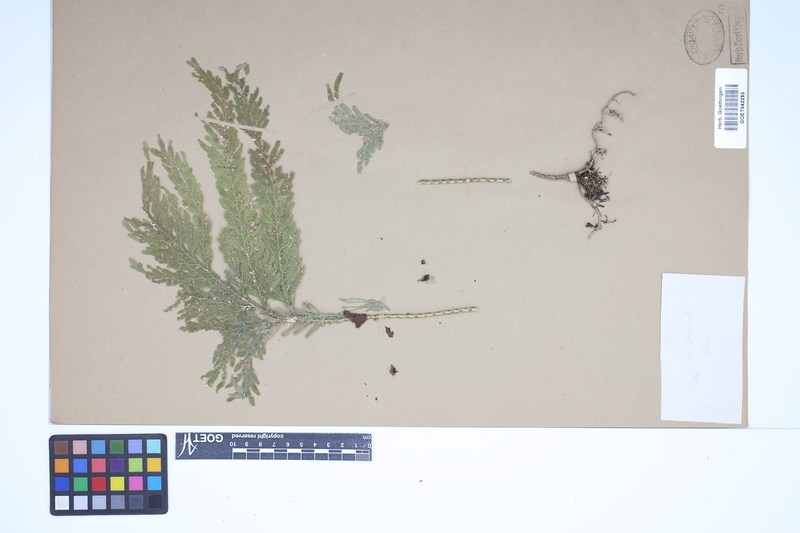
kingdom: Plantae
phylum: Tracheophyta
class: Lycopodiopsida
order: Selaginellales
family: Selaginellaceae
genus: Selaginella
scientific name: Selaginella flabellata
